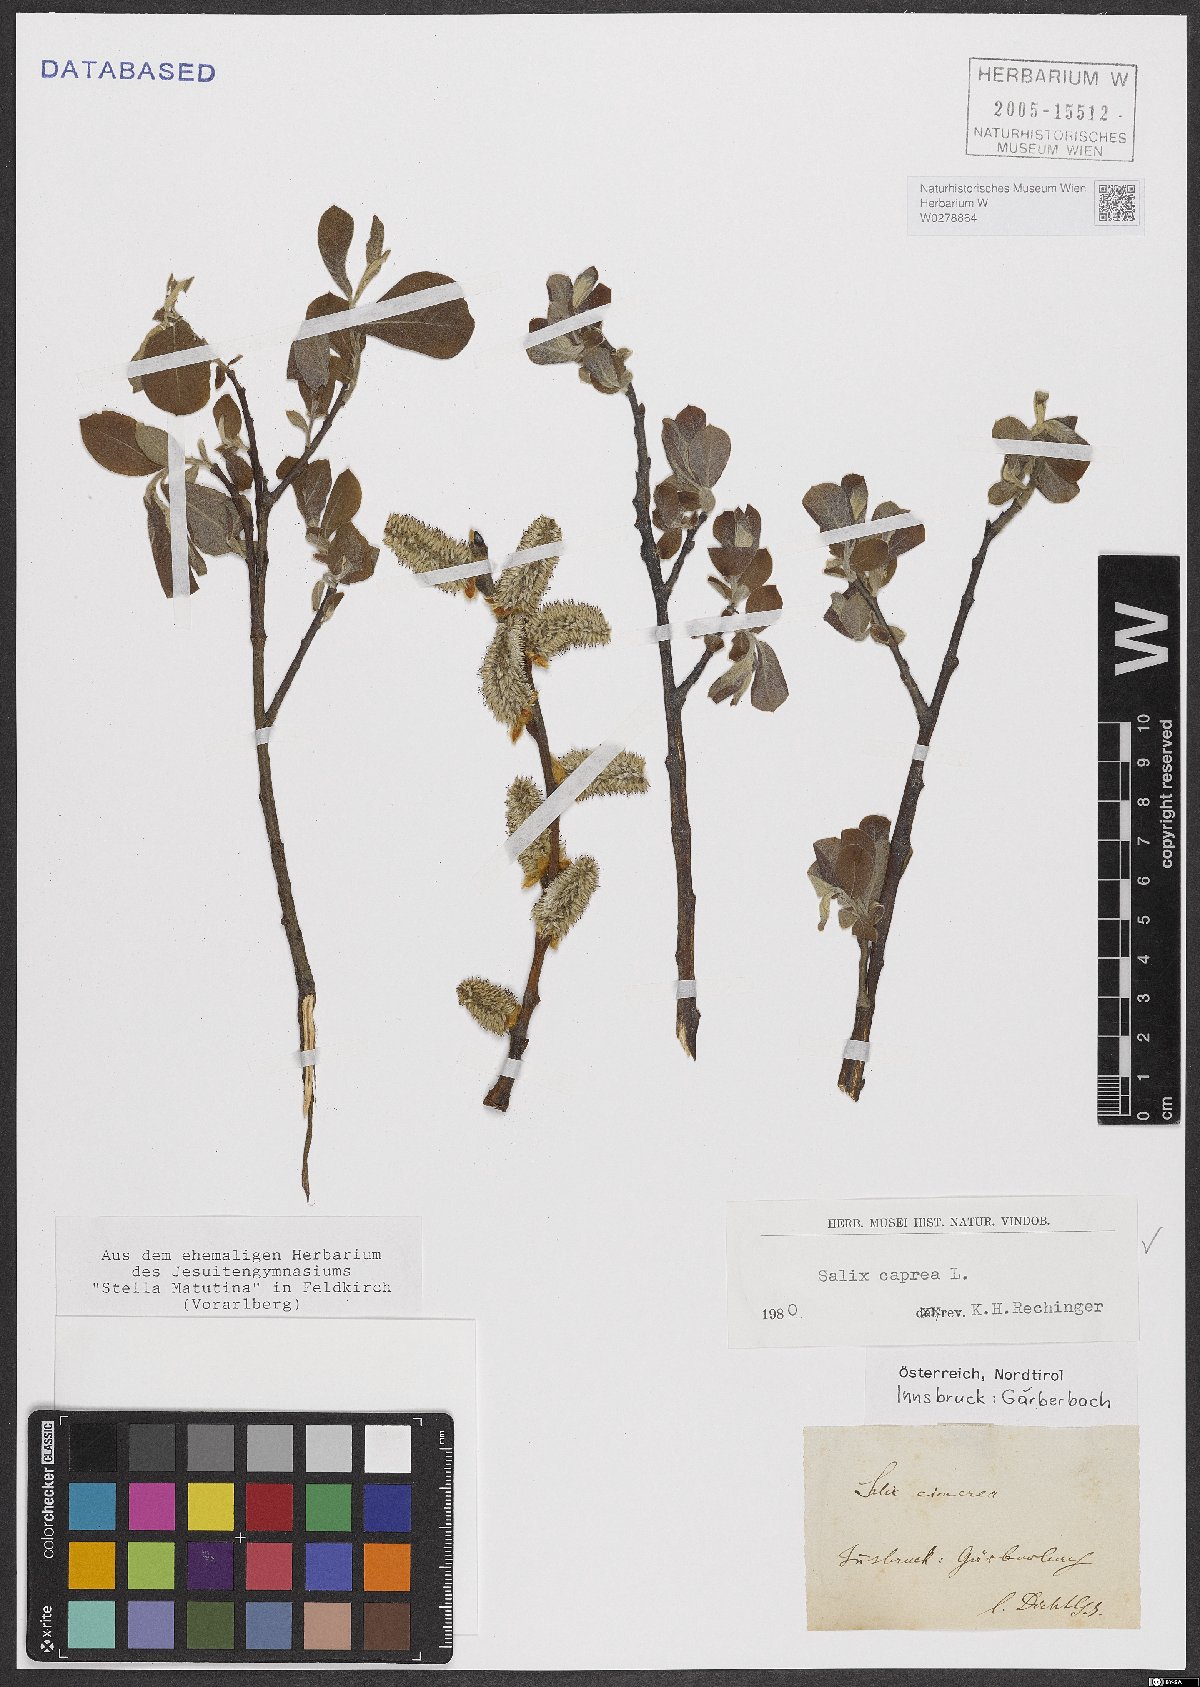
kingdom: Plantae
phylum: Tracheophyta
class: Magnoliopsida
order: Malpighiales
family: Salicaceae
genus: Salix
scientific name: Salix caprea
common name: Goat willow
